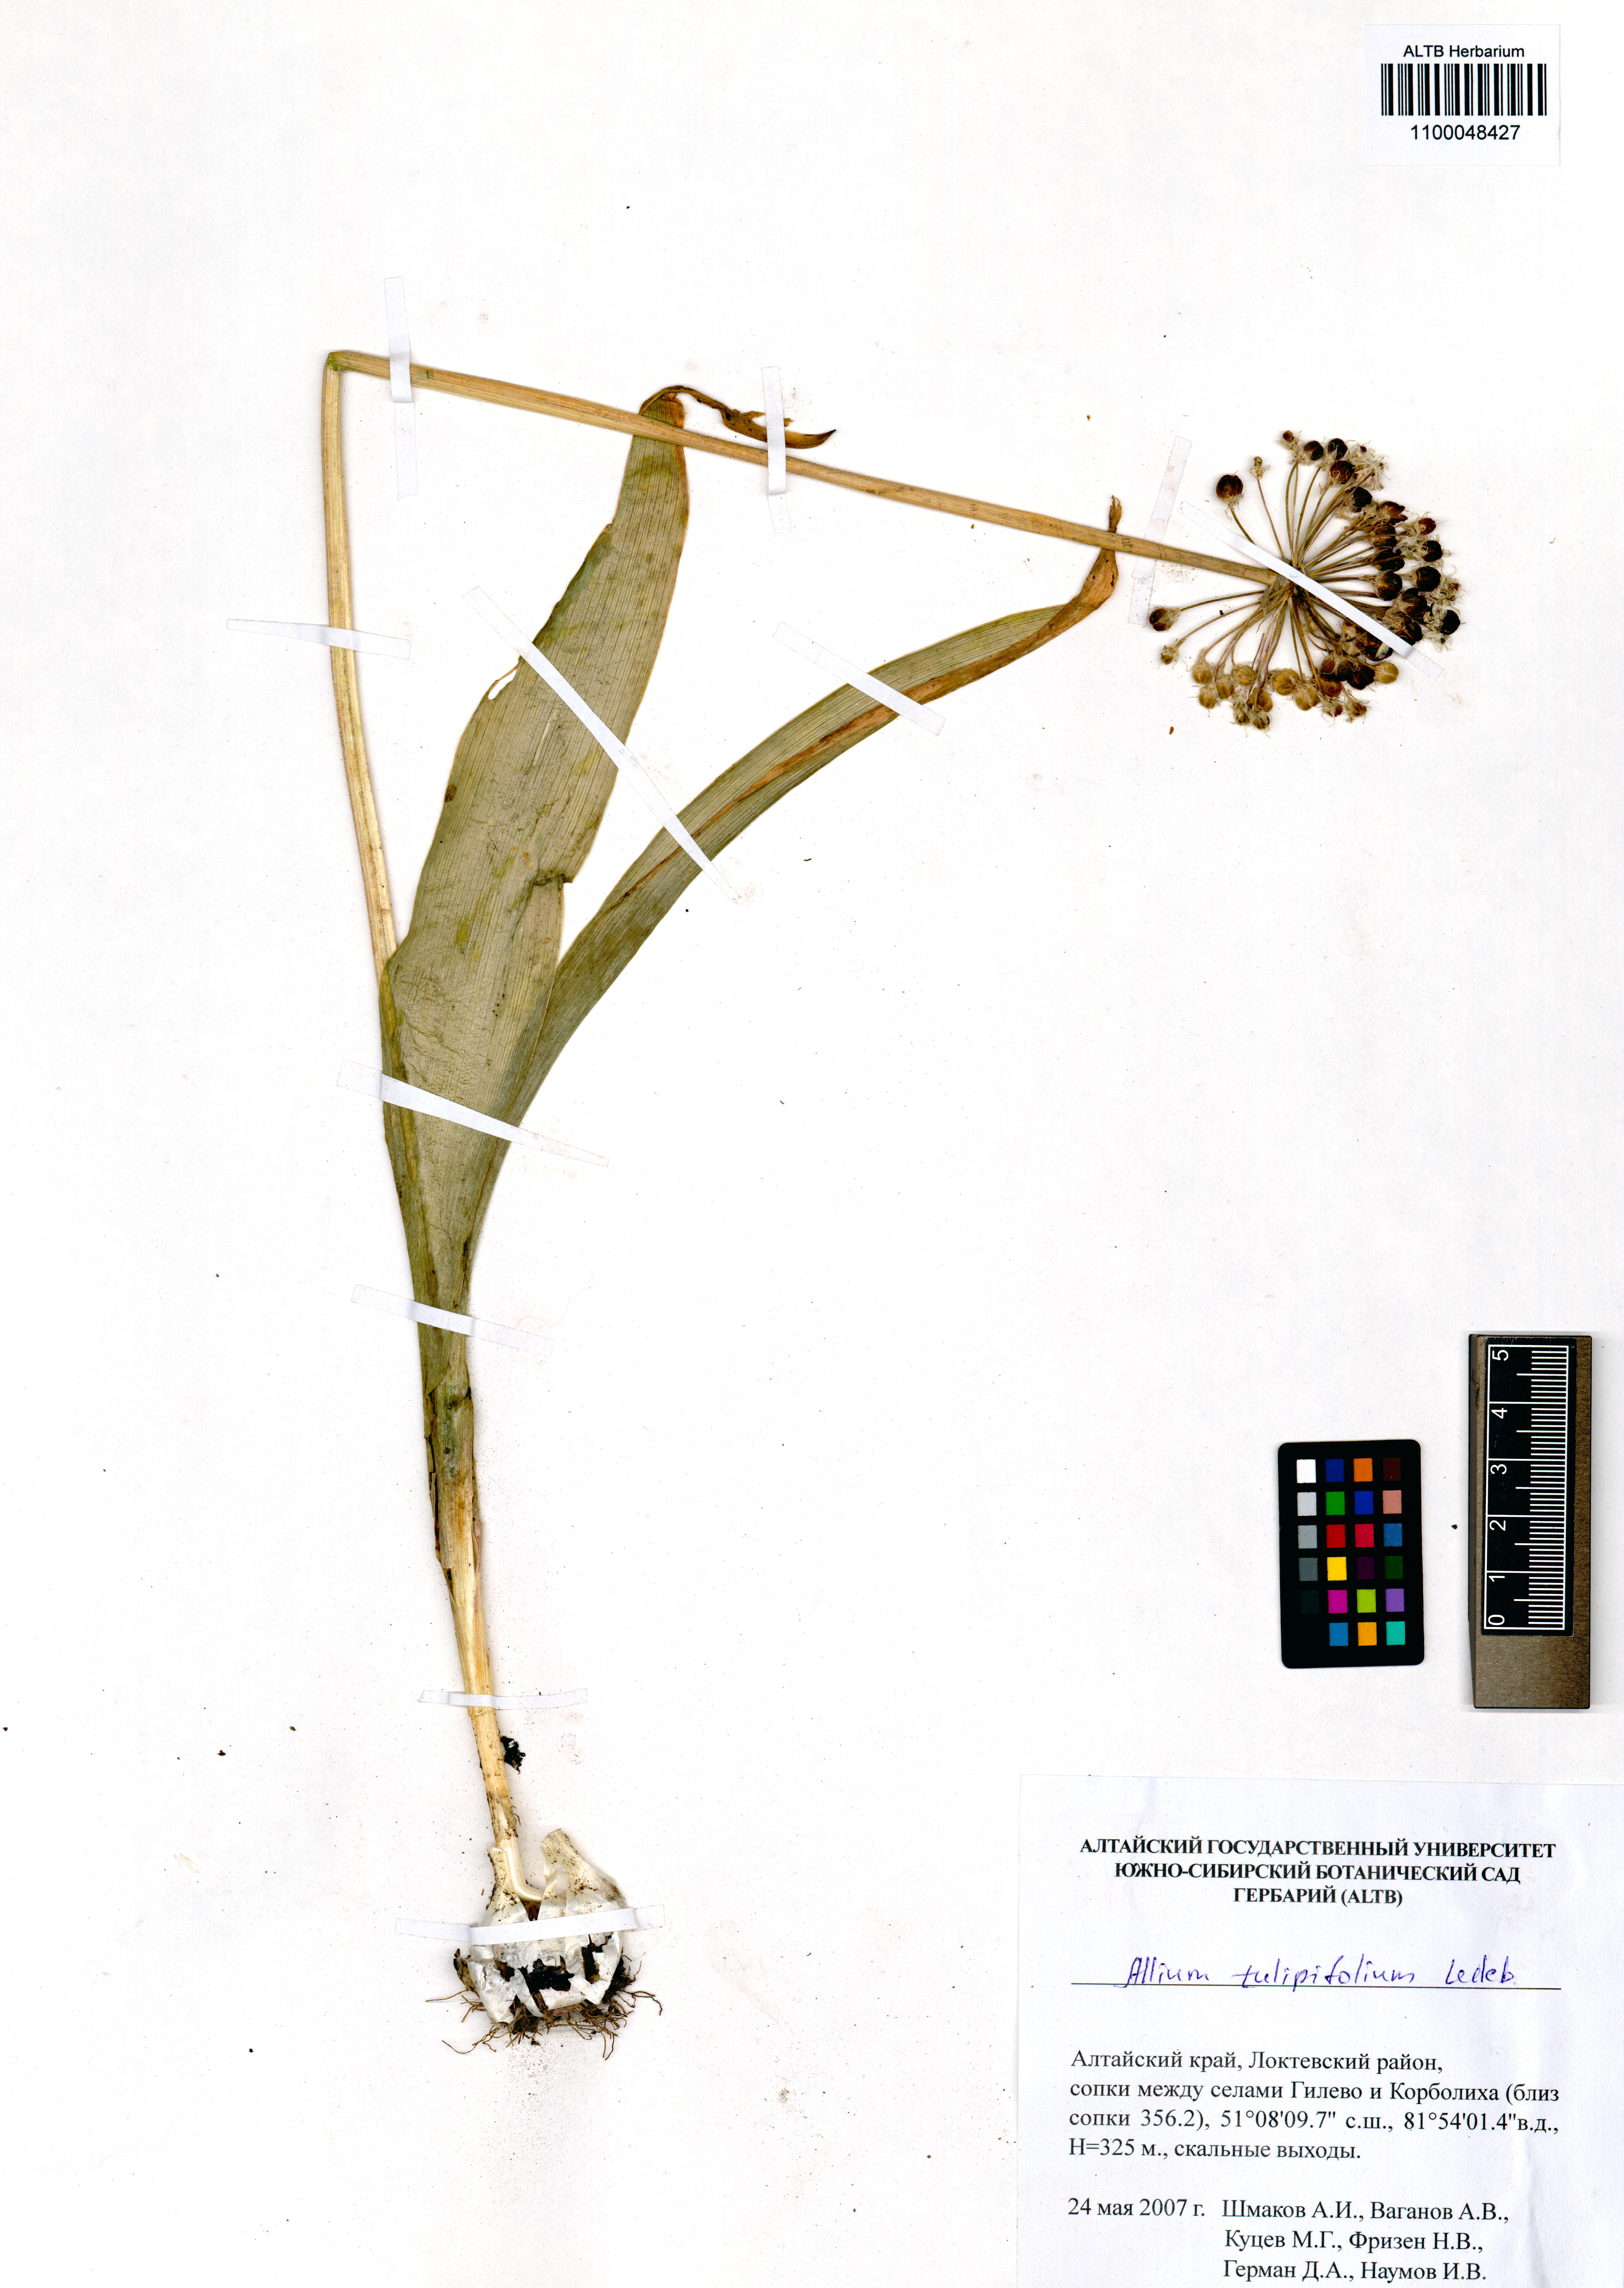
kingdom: Plantae
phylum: Tracheophyta
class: Liliopsida
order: Asparagales
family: Amaryllidaceae
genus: Allium
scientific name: Allium tulipifolium
